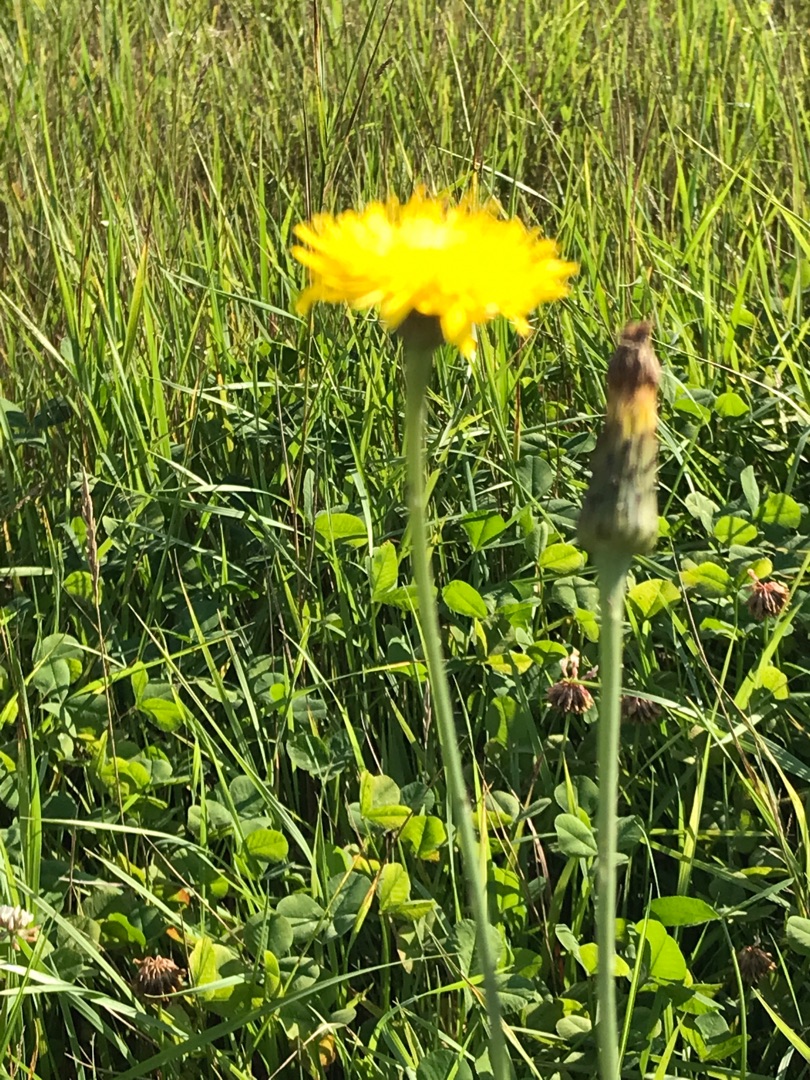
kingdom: Plantae
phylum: Tracheophyta
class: Magnoliopsida
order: Asterales
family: Asteraceae
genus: Hypochaeris
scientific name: Hypochaeris radicata
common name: Almindelig kongepen
